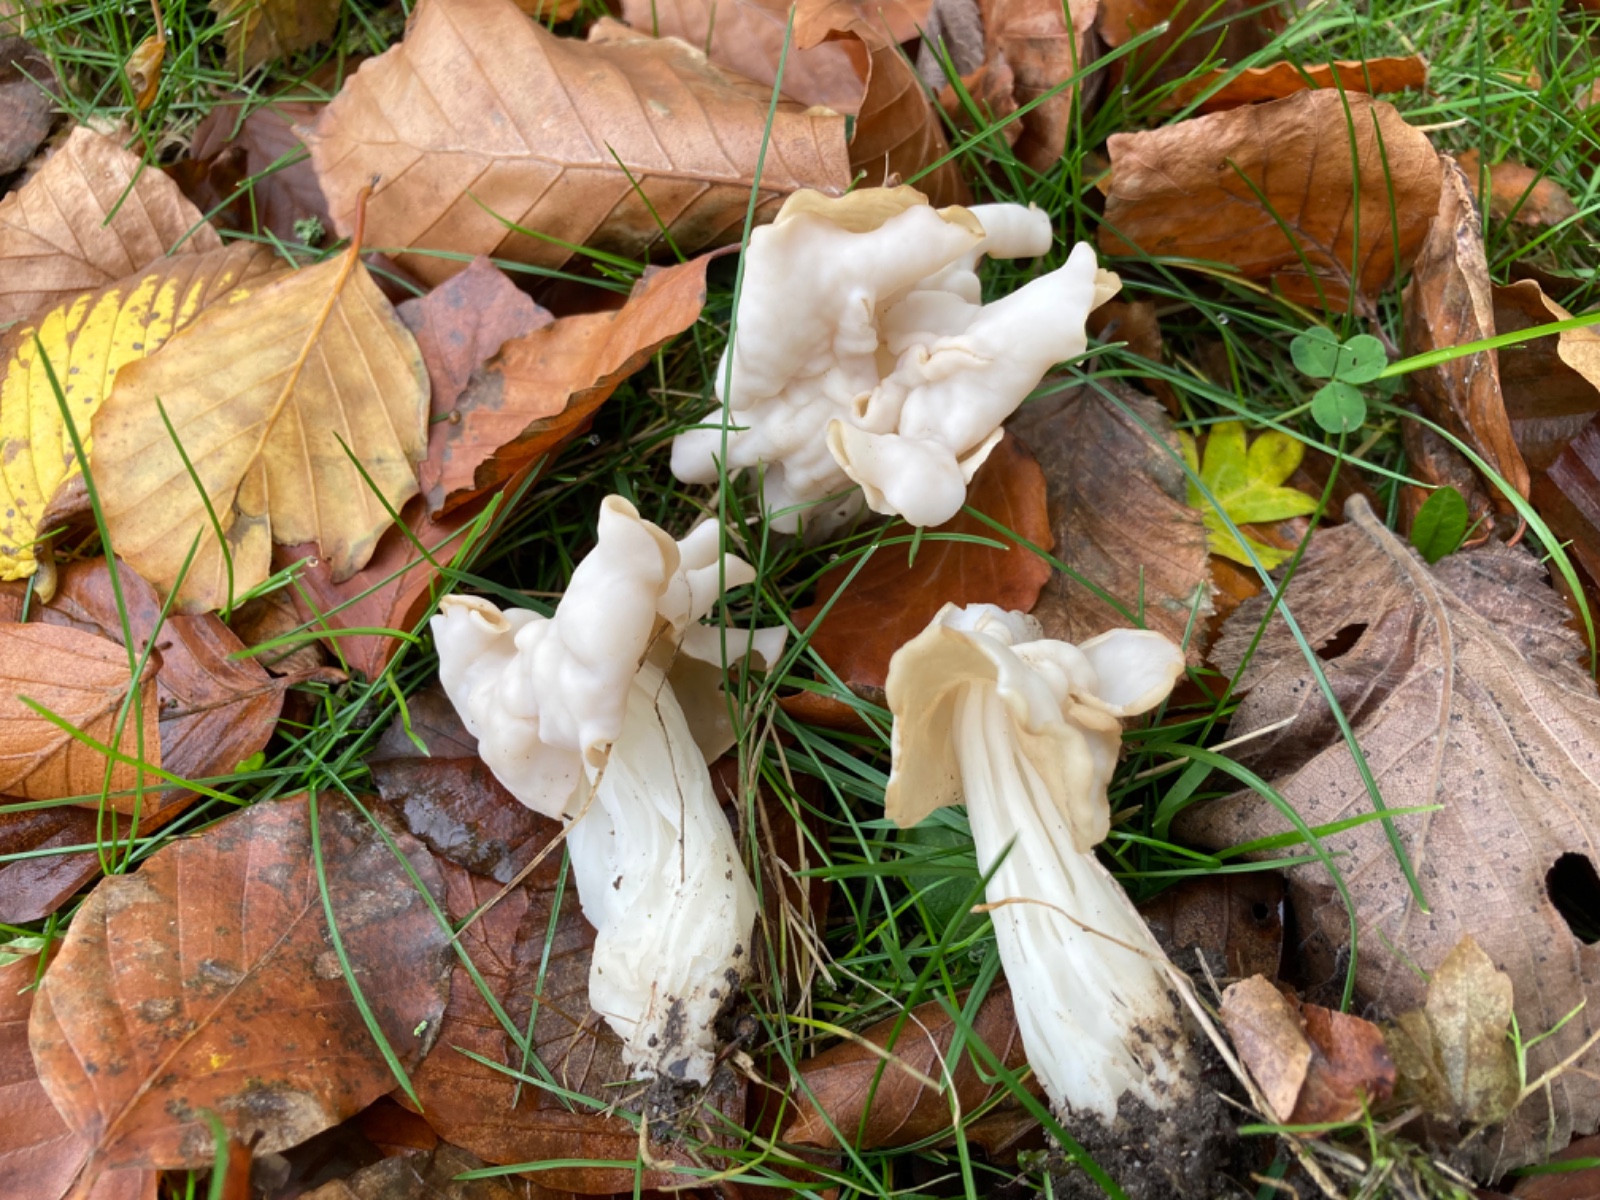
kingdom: Fungi
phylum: Ascomycota
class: Pezizomycetes
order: Pezizales
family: Helvellaceae
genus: Helvella
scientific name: Helvella crispa
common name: kruset foldhat
